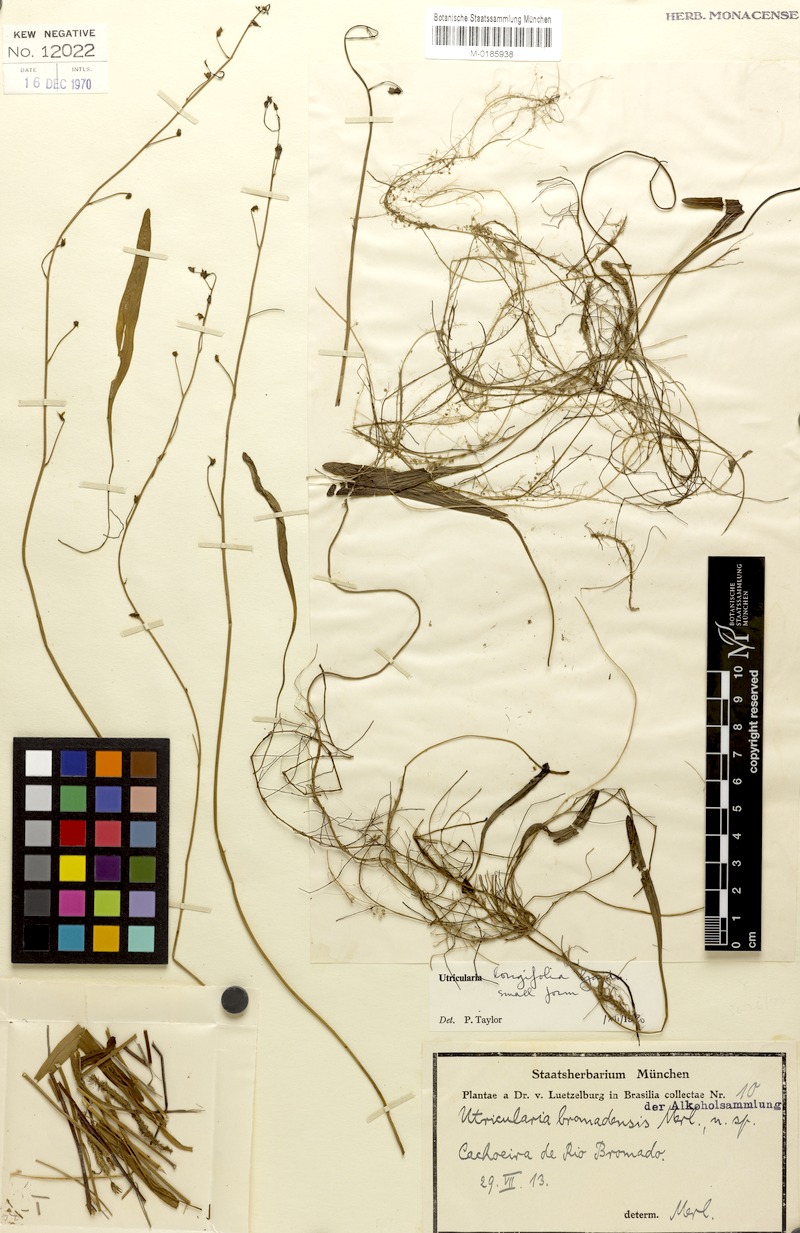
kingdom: Plantae
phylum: Tracheophyta
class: Magnoliopsida
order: Lamiales
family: Lentibulariaceae
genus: Utricularia
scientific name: Utricularia longifolia
